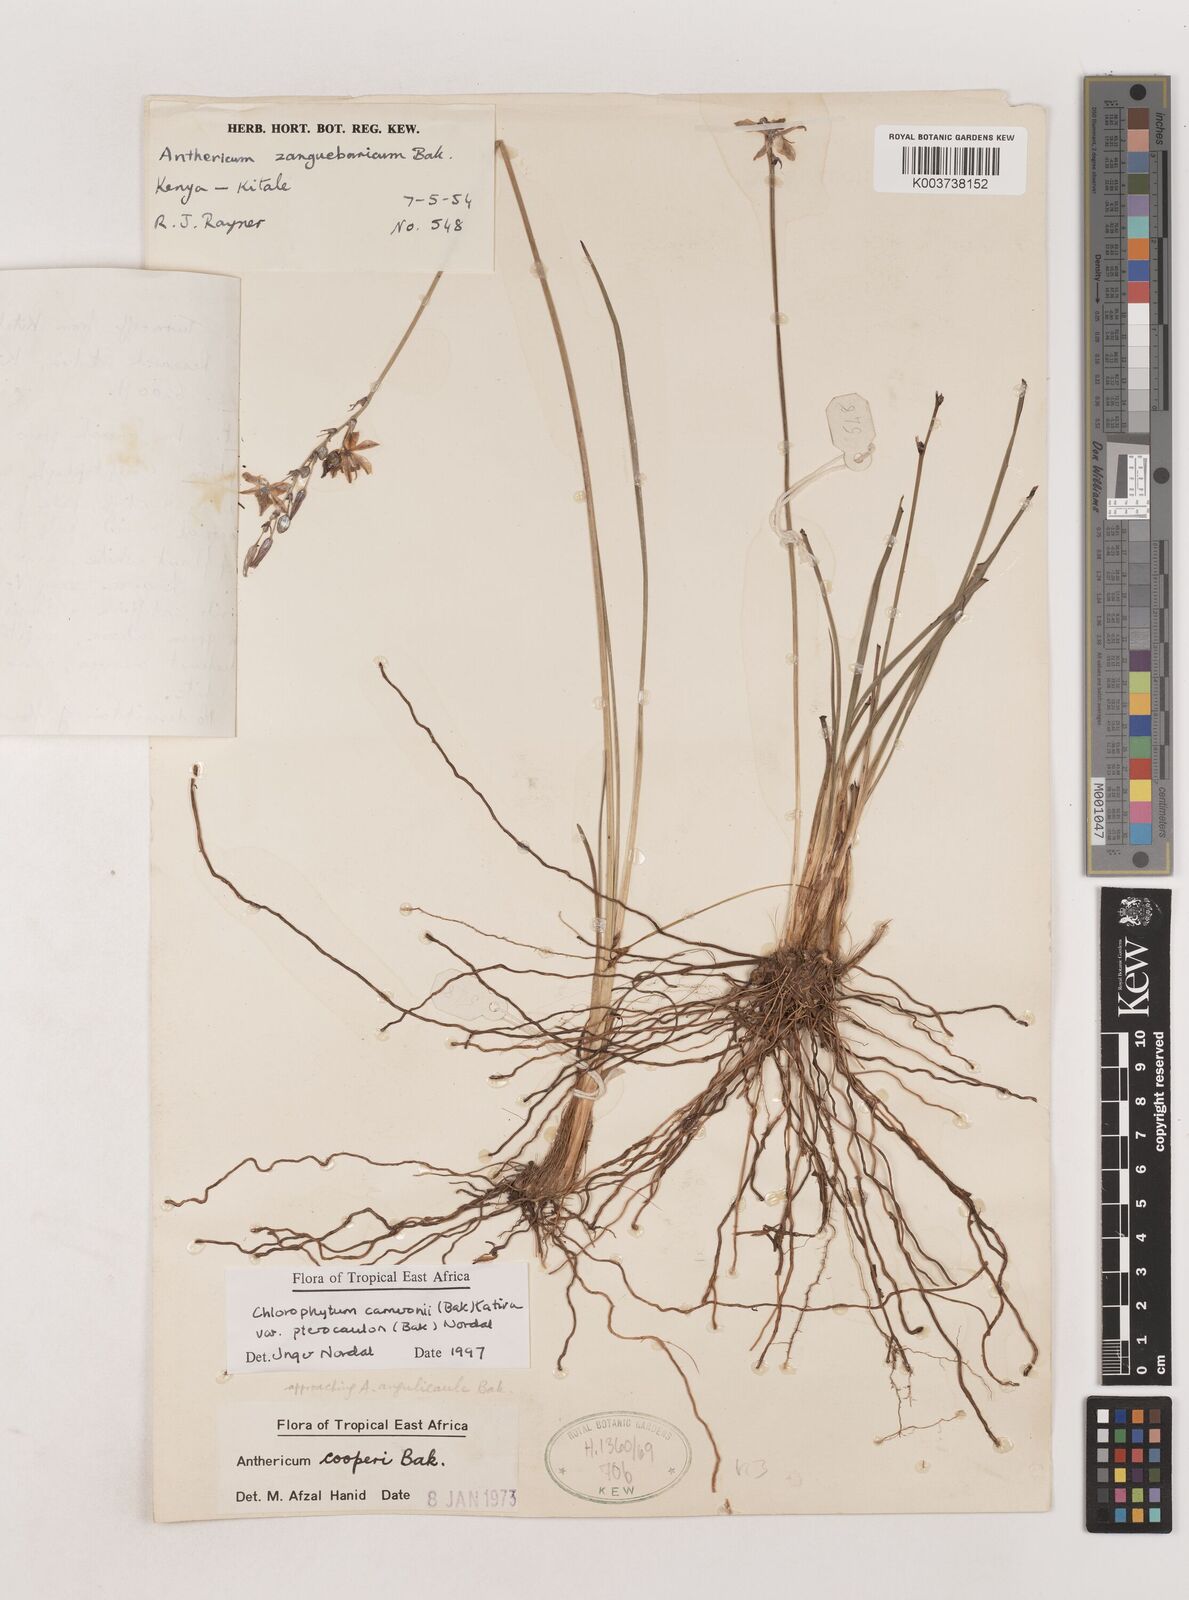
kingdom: Plantae
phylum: Tracheophyta
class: Liliopsida
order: Asparagales
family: Asparagaceae
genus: Chlorophytum
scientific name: Chlorophytum cameronii
